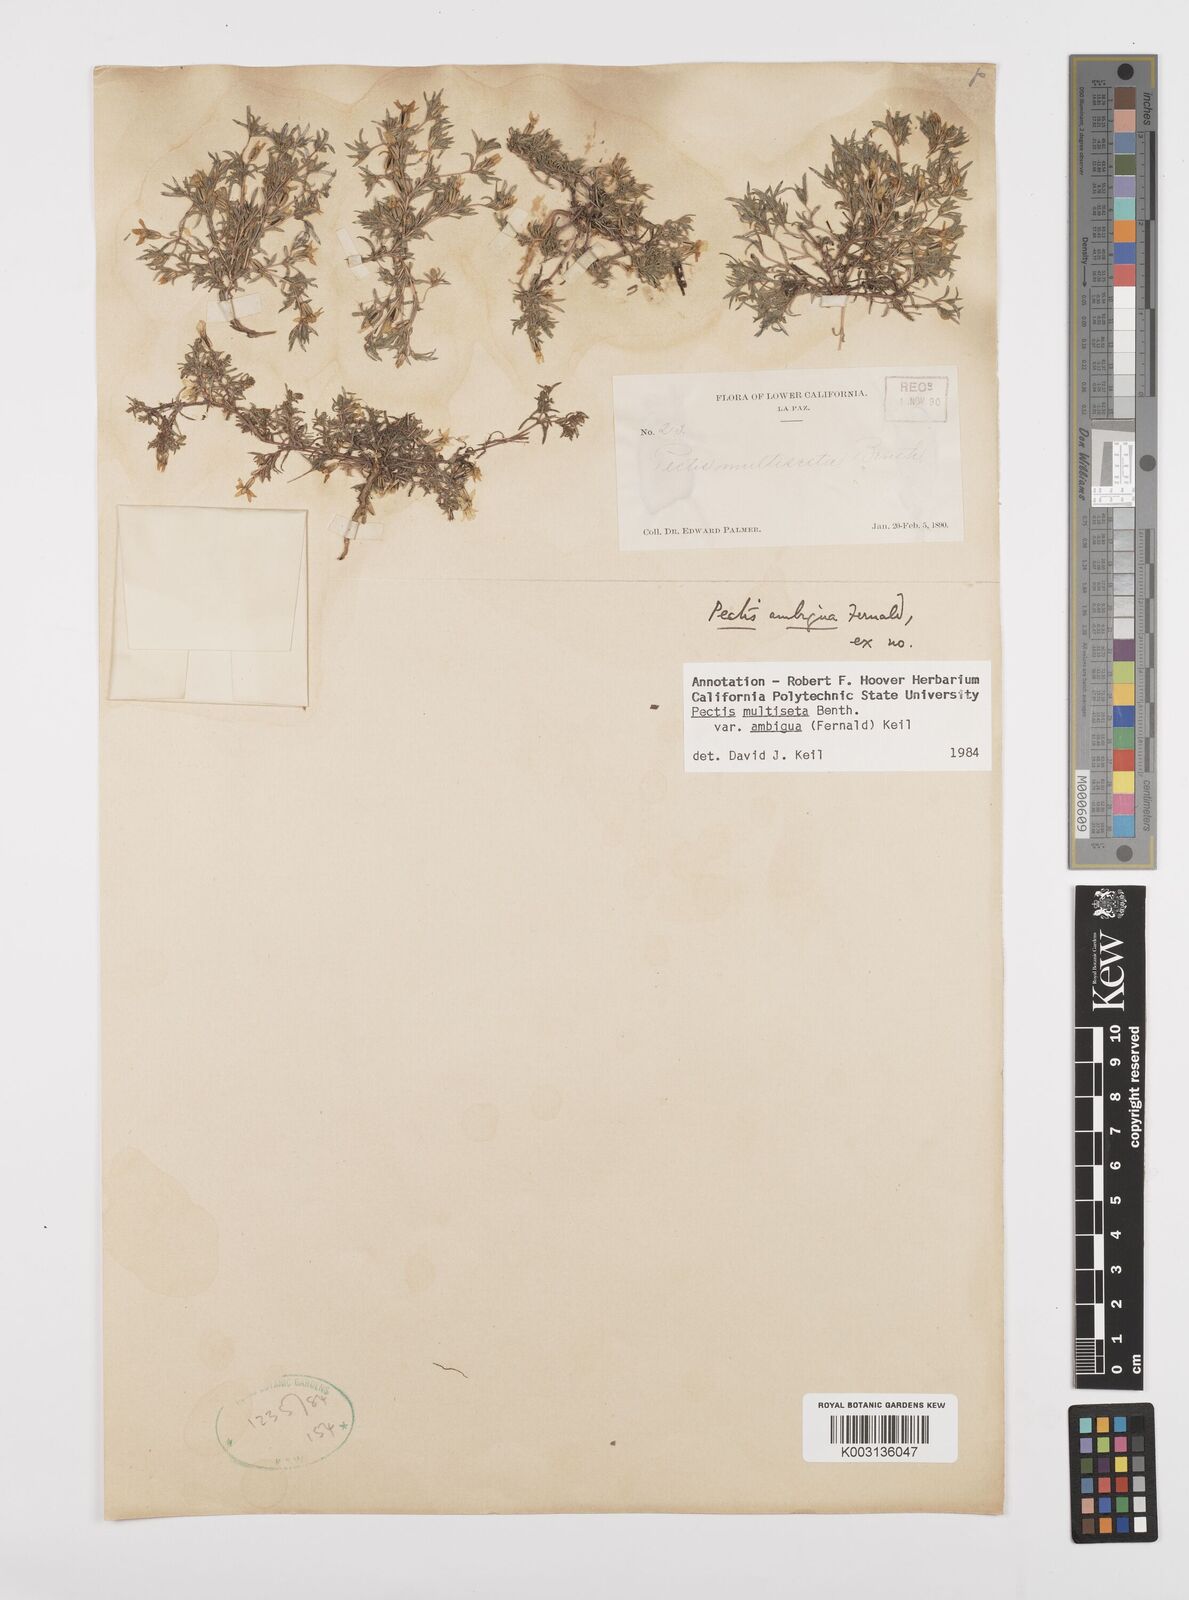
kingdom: Plantae
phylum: Tracheophyta
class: Magnoliopsida
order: Asterales
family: Asteraceae
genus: Pectis
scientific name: Pectis multiseta
